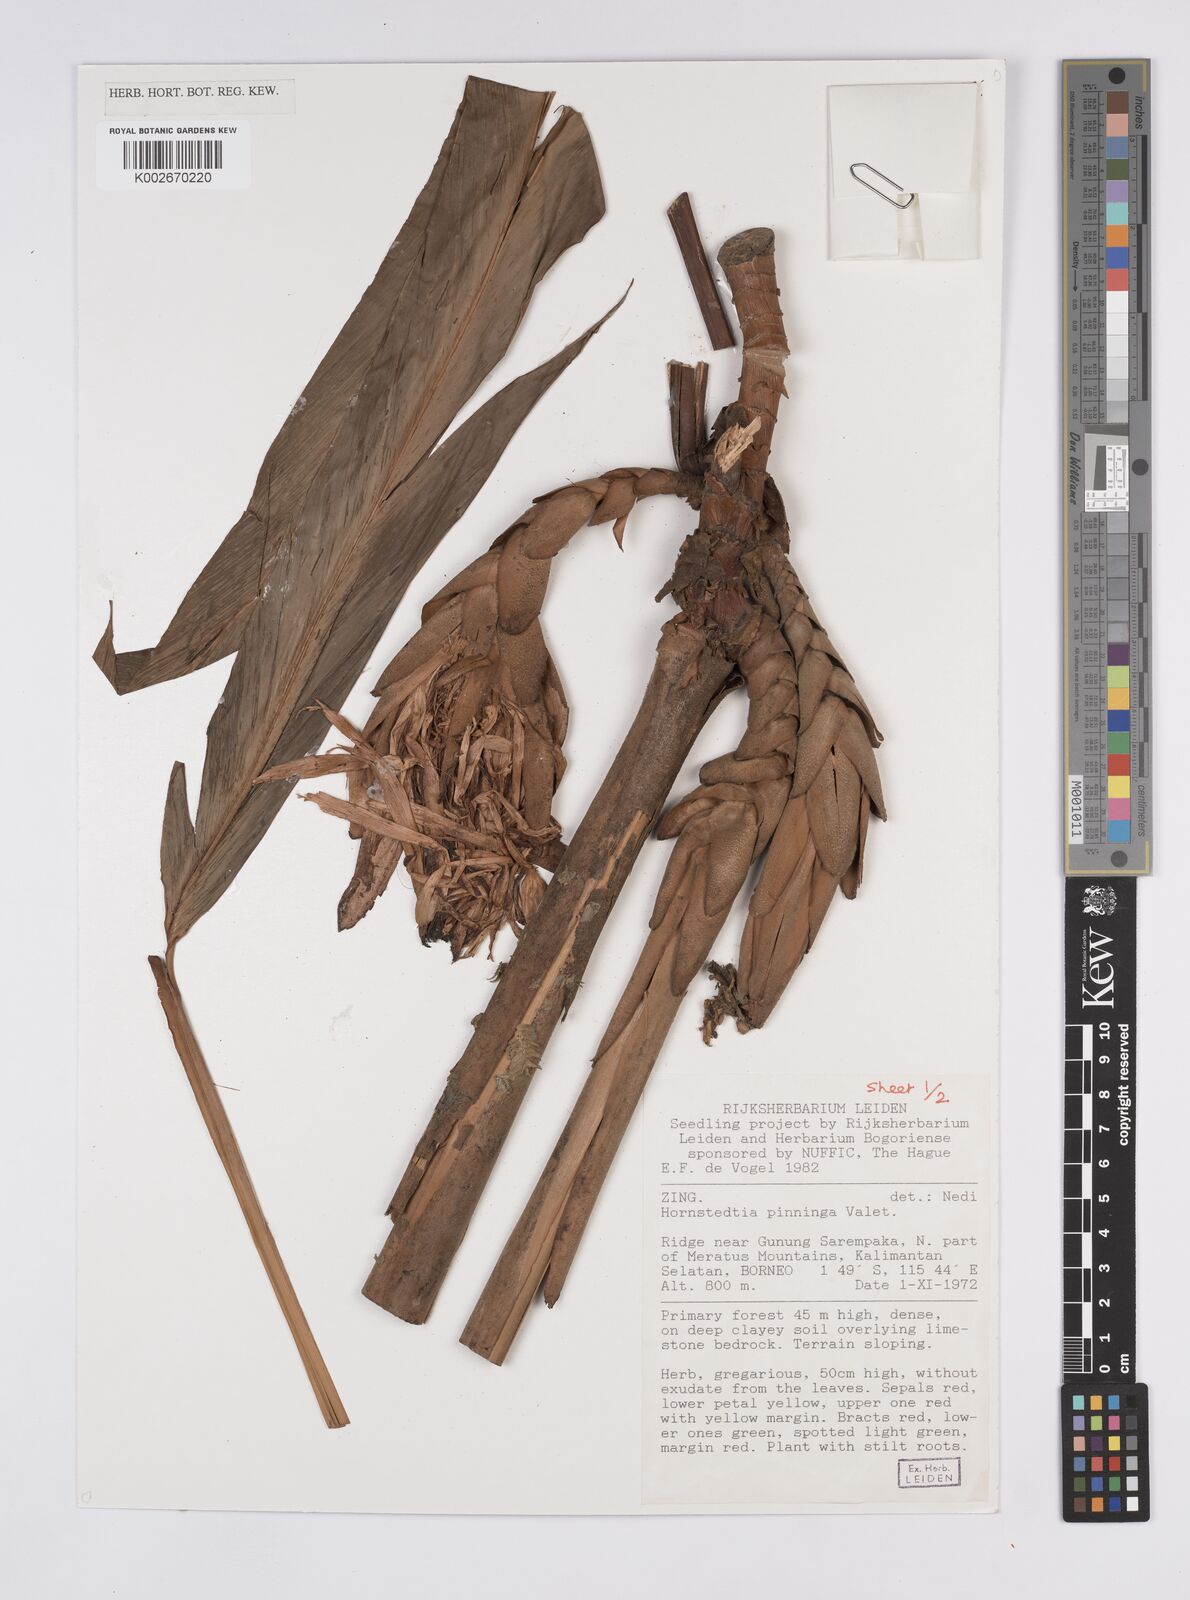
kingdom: Plantae
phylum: Tracheophyta
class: Liliopsida
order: Zingiberales
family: Zingiberaceae
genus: Hornstedtia
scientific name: Hornstedtia pininga
